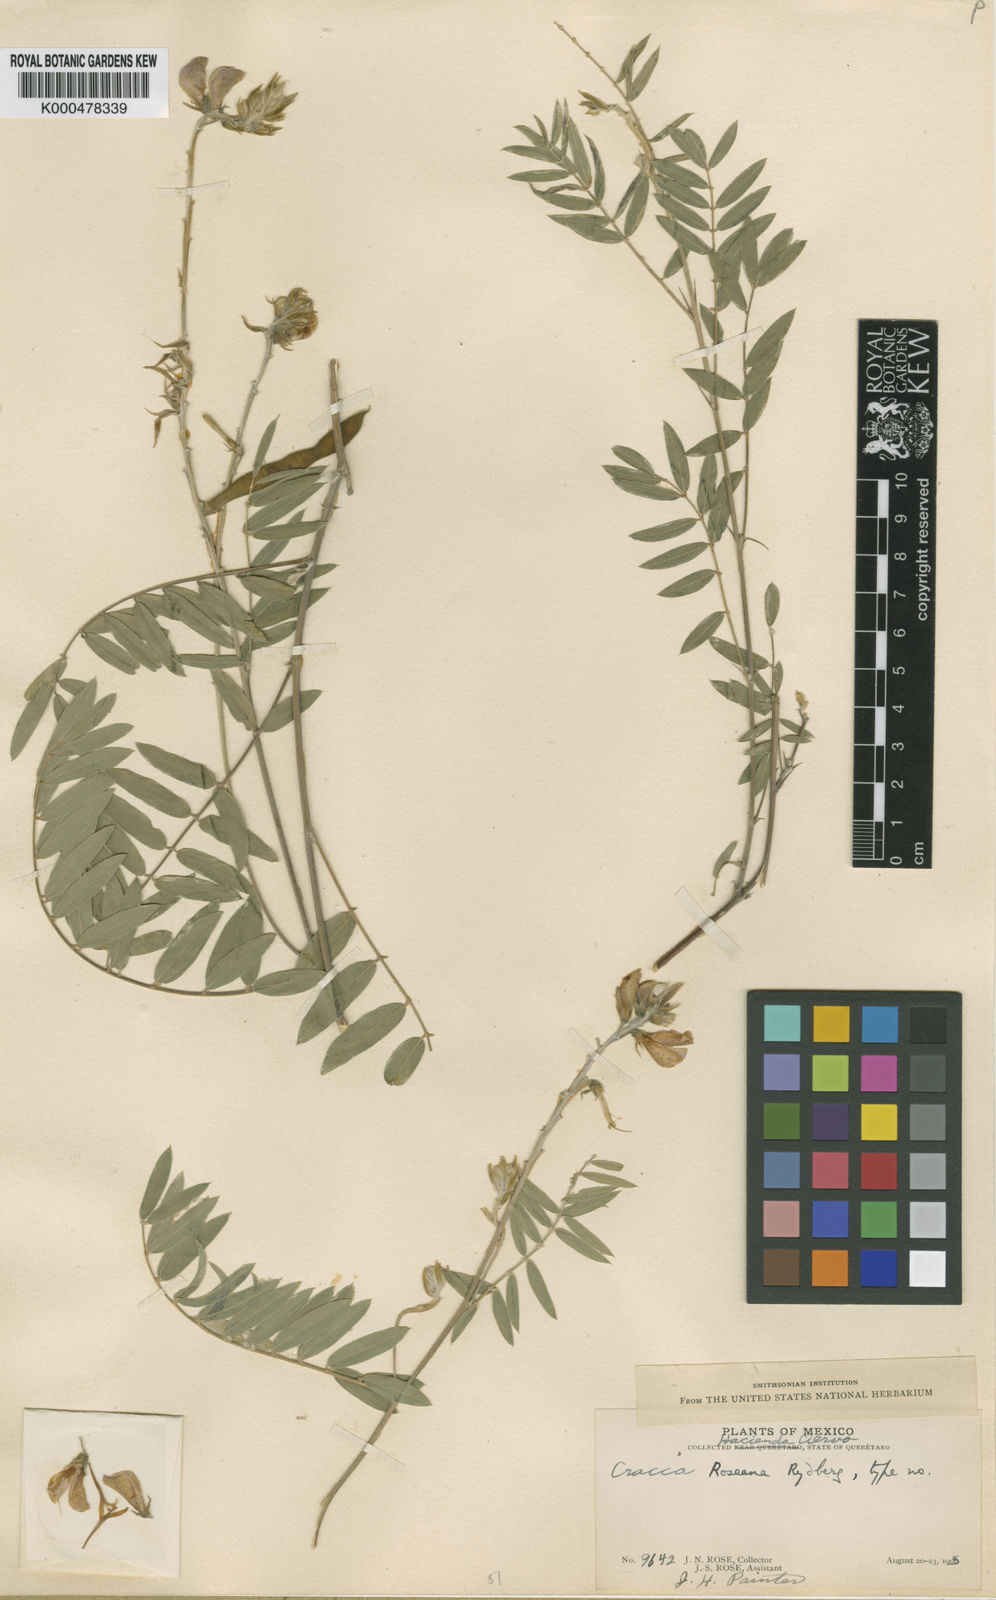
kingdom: Plantae
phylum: Tracheophyta
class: Magnoliopsida
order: Fabales
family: Fabaceae
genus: Tephrosia
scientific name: Tephrosia leucantha
